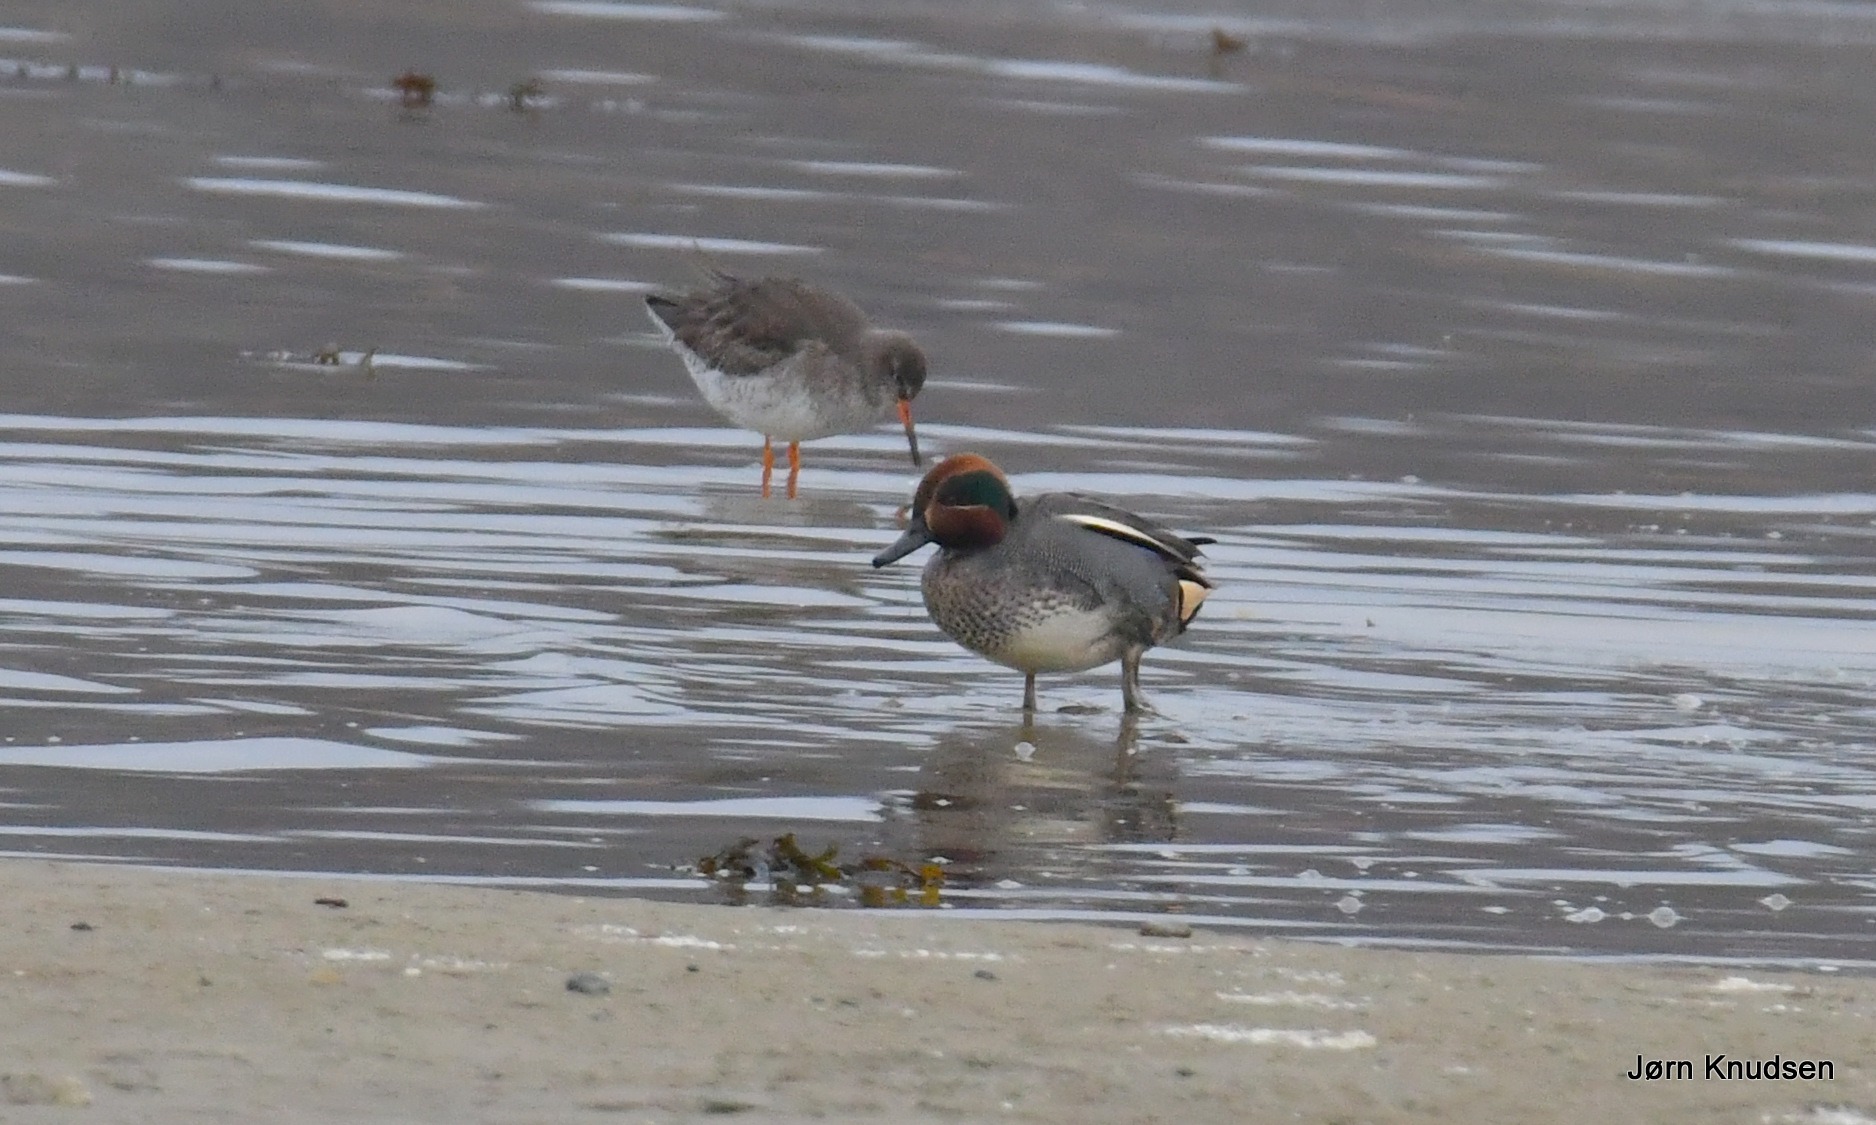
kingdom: Animalia
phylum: Chordata
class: Aves
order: Anseriformes
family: Anatidae
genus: Anas
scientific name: Anas crecca
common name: Krikand
